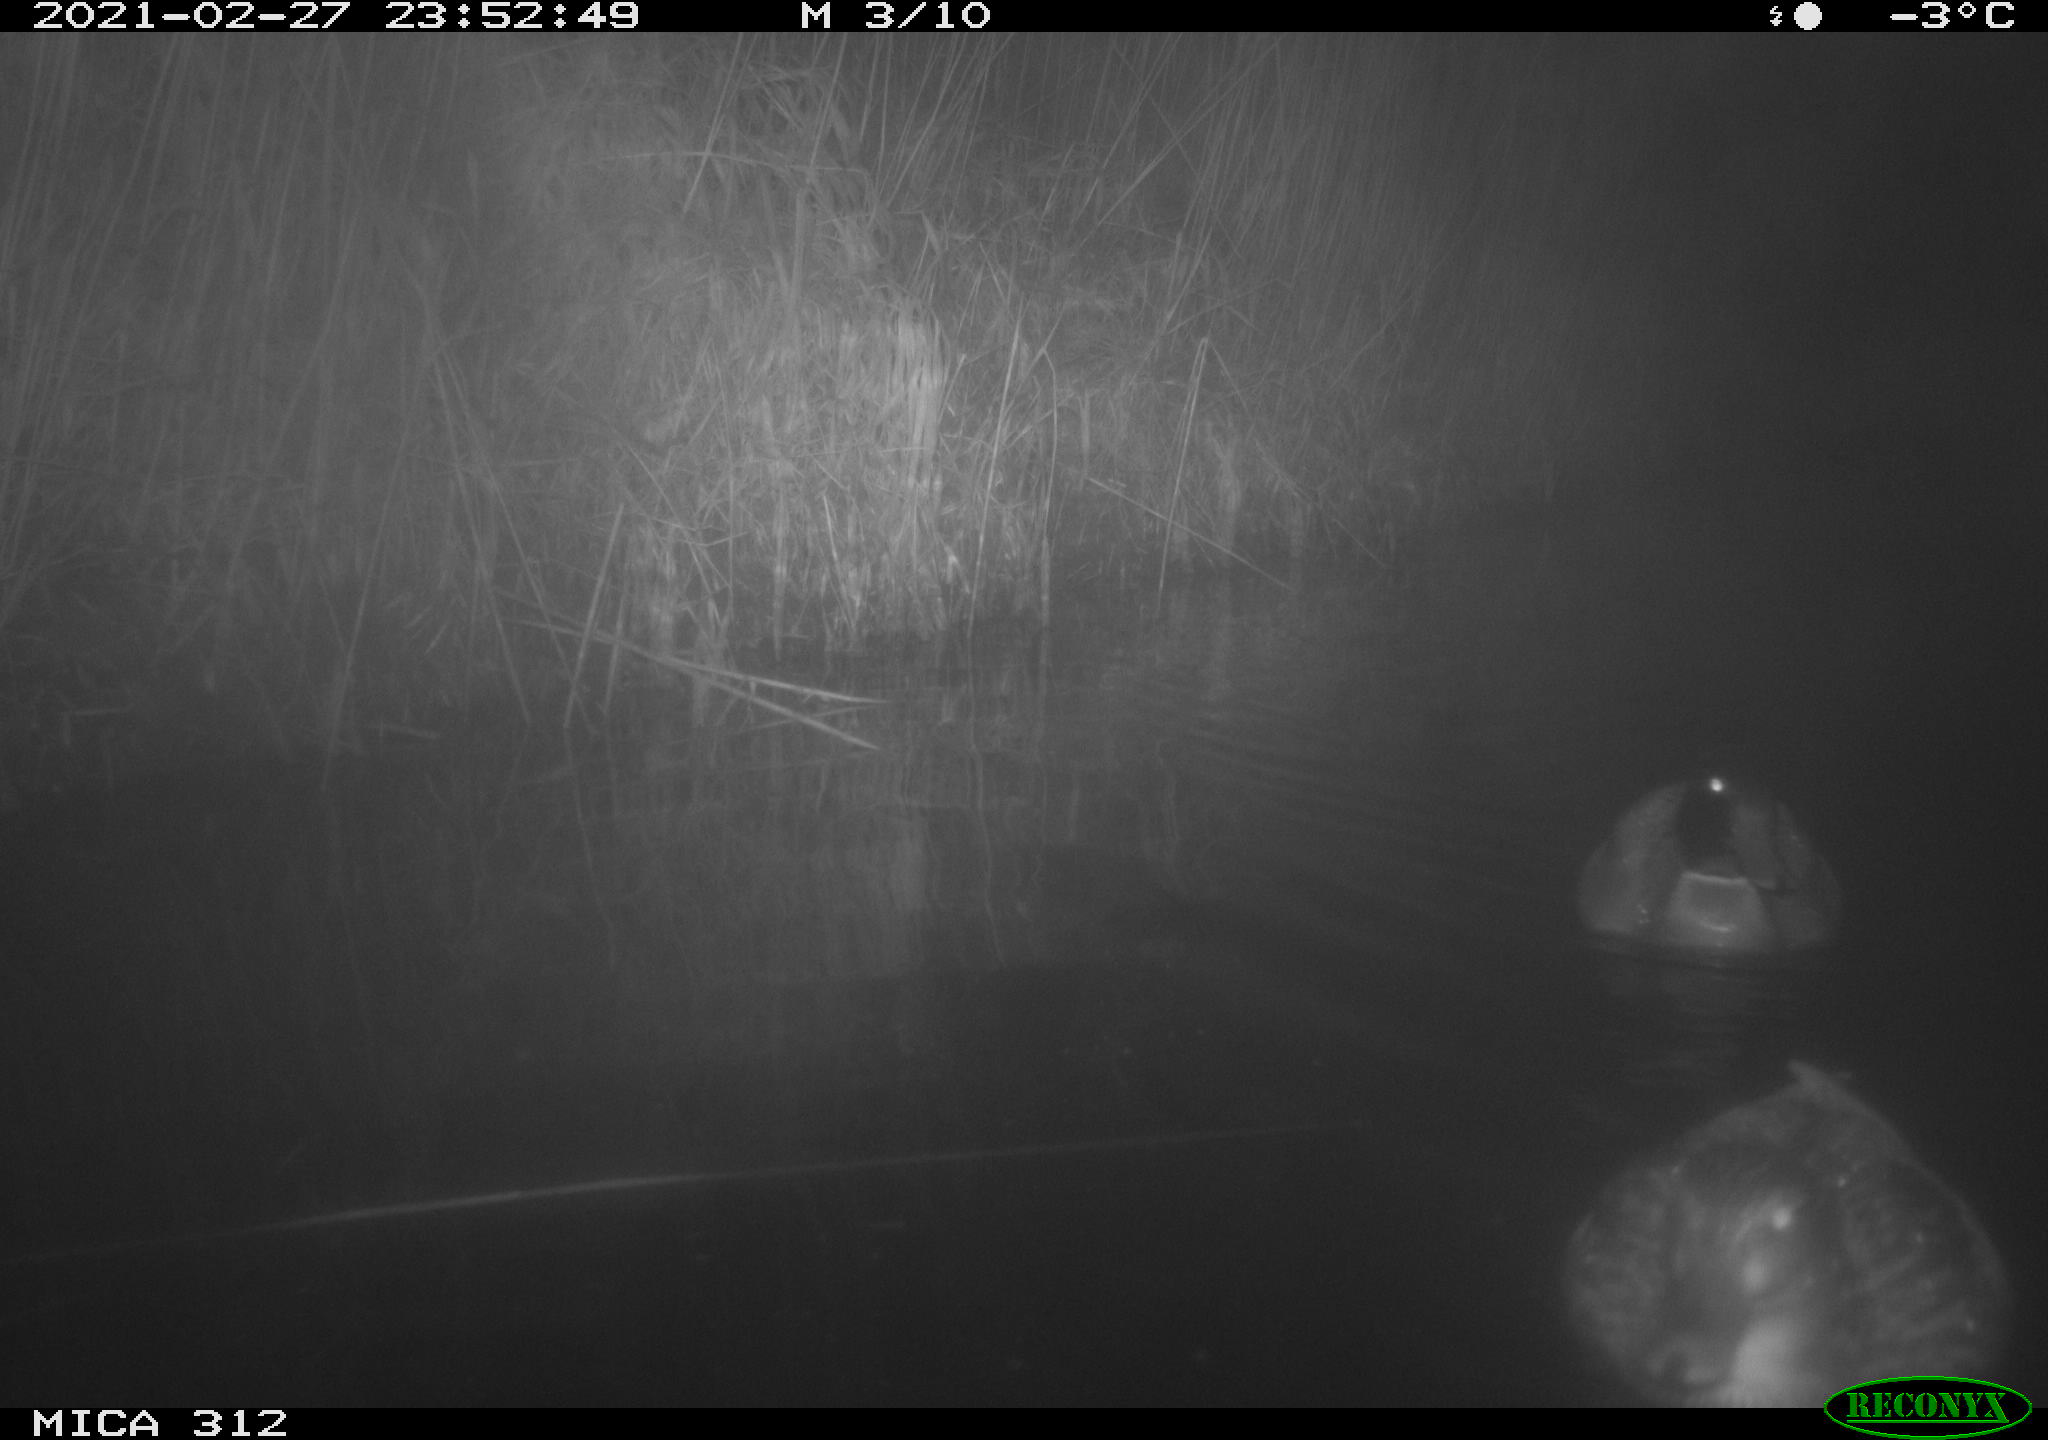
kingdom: Animalia
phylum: Chordata
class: Aves
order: Anseriformes
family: Anatidae
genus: Anas
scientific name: Anas platyrhynchos
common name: Mallard
